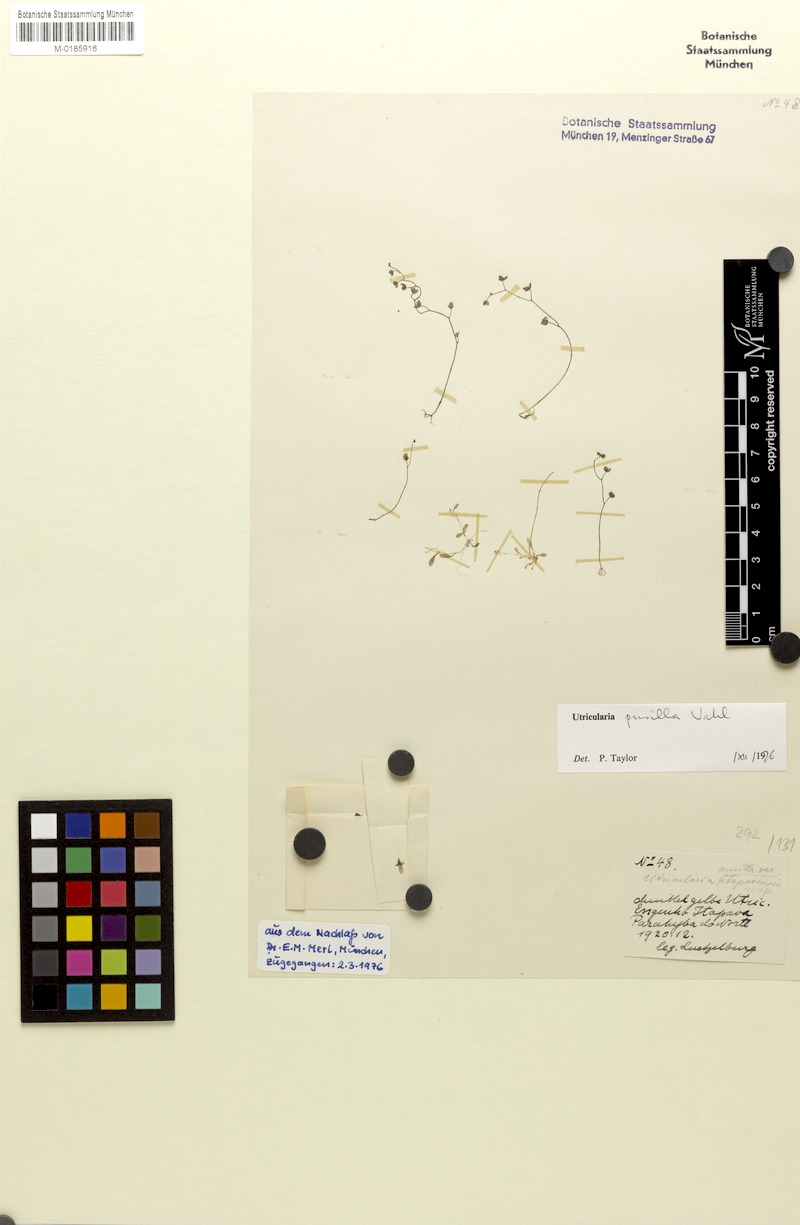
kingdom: Plantae
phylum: Tracheophyta
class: Magnoliopsida
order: Lamiales
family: Lentibulariaceae
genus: Utricularia
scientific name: Utricularia pusilla
